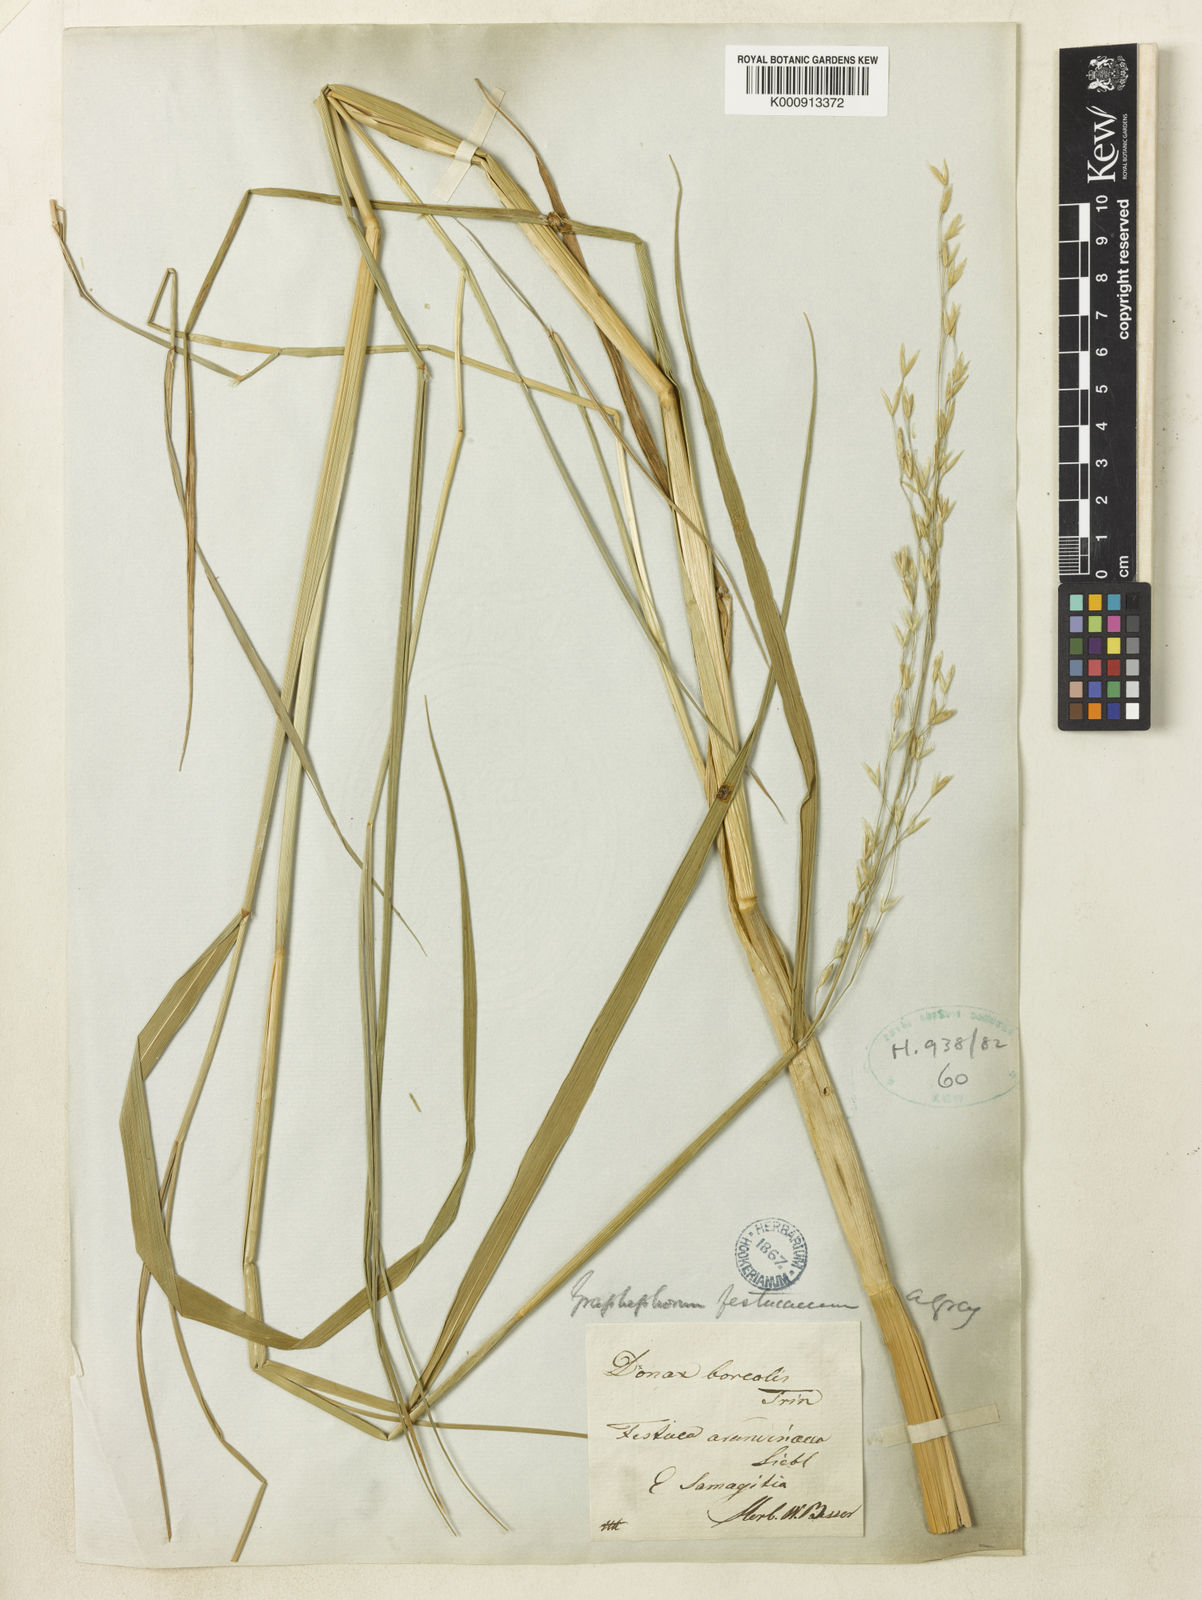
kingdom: Plantae
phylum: Tracheophyta
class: Liliopsida
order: Poales
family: Poaceae
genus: Scolochloa
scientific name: Scolochloa festucacea
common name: Common rivergrass
